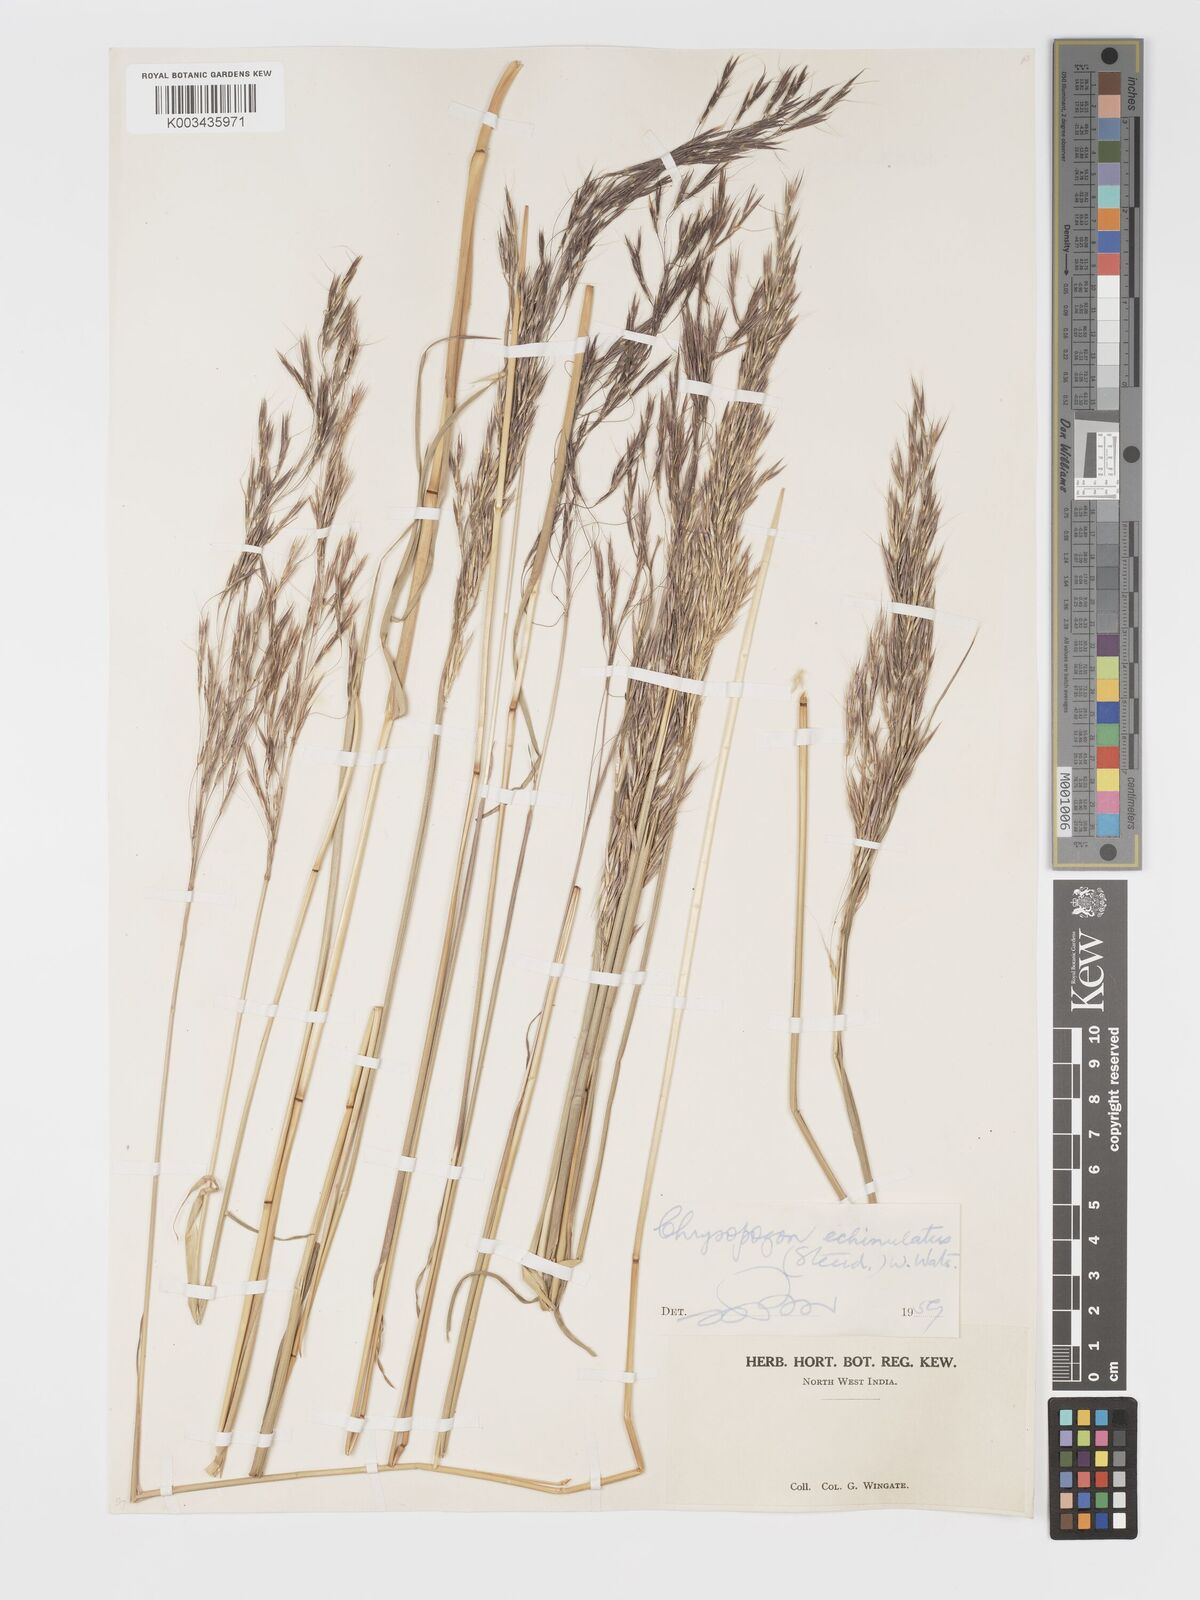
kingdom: Plantae
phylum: Tracheophyta
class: Liliopsida
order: Poales
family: Poaceae
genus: Chrysopogon
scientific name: Chrysopogon gryllus
